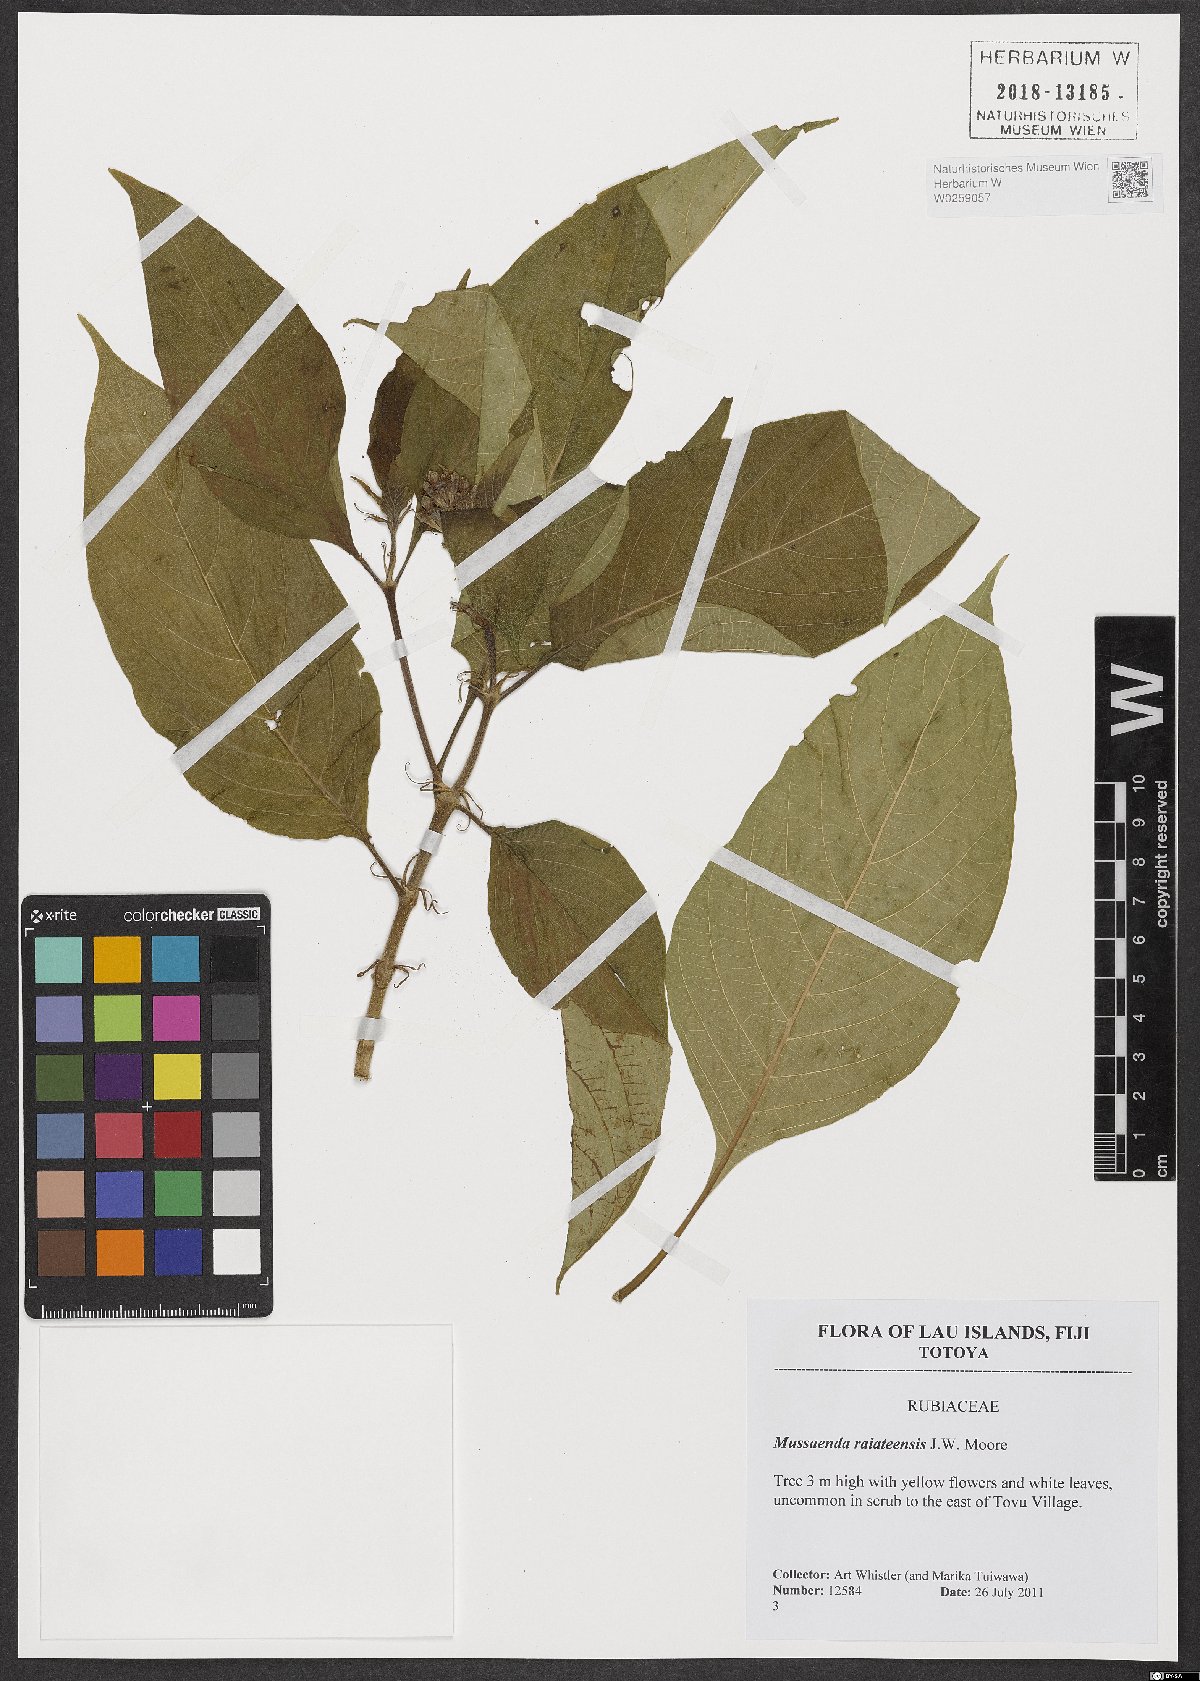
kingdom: Plantae
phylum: Tracheophyta
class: Magnoliopsida
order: Gentianales
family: Rubiaceae
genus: Mussaenda
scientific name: Mussaenda raiateensis
